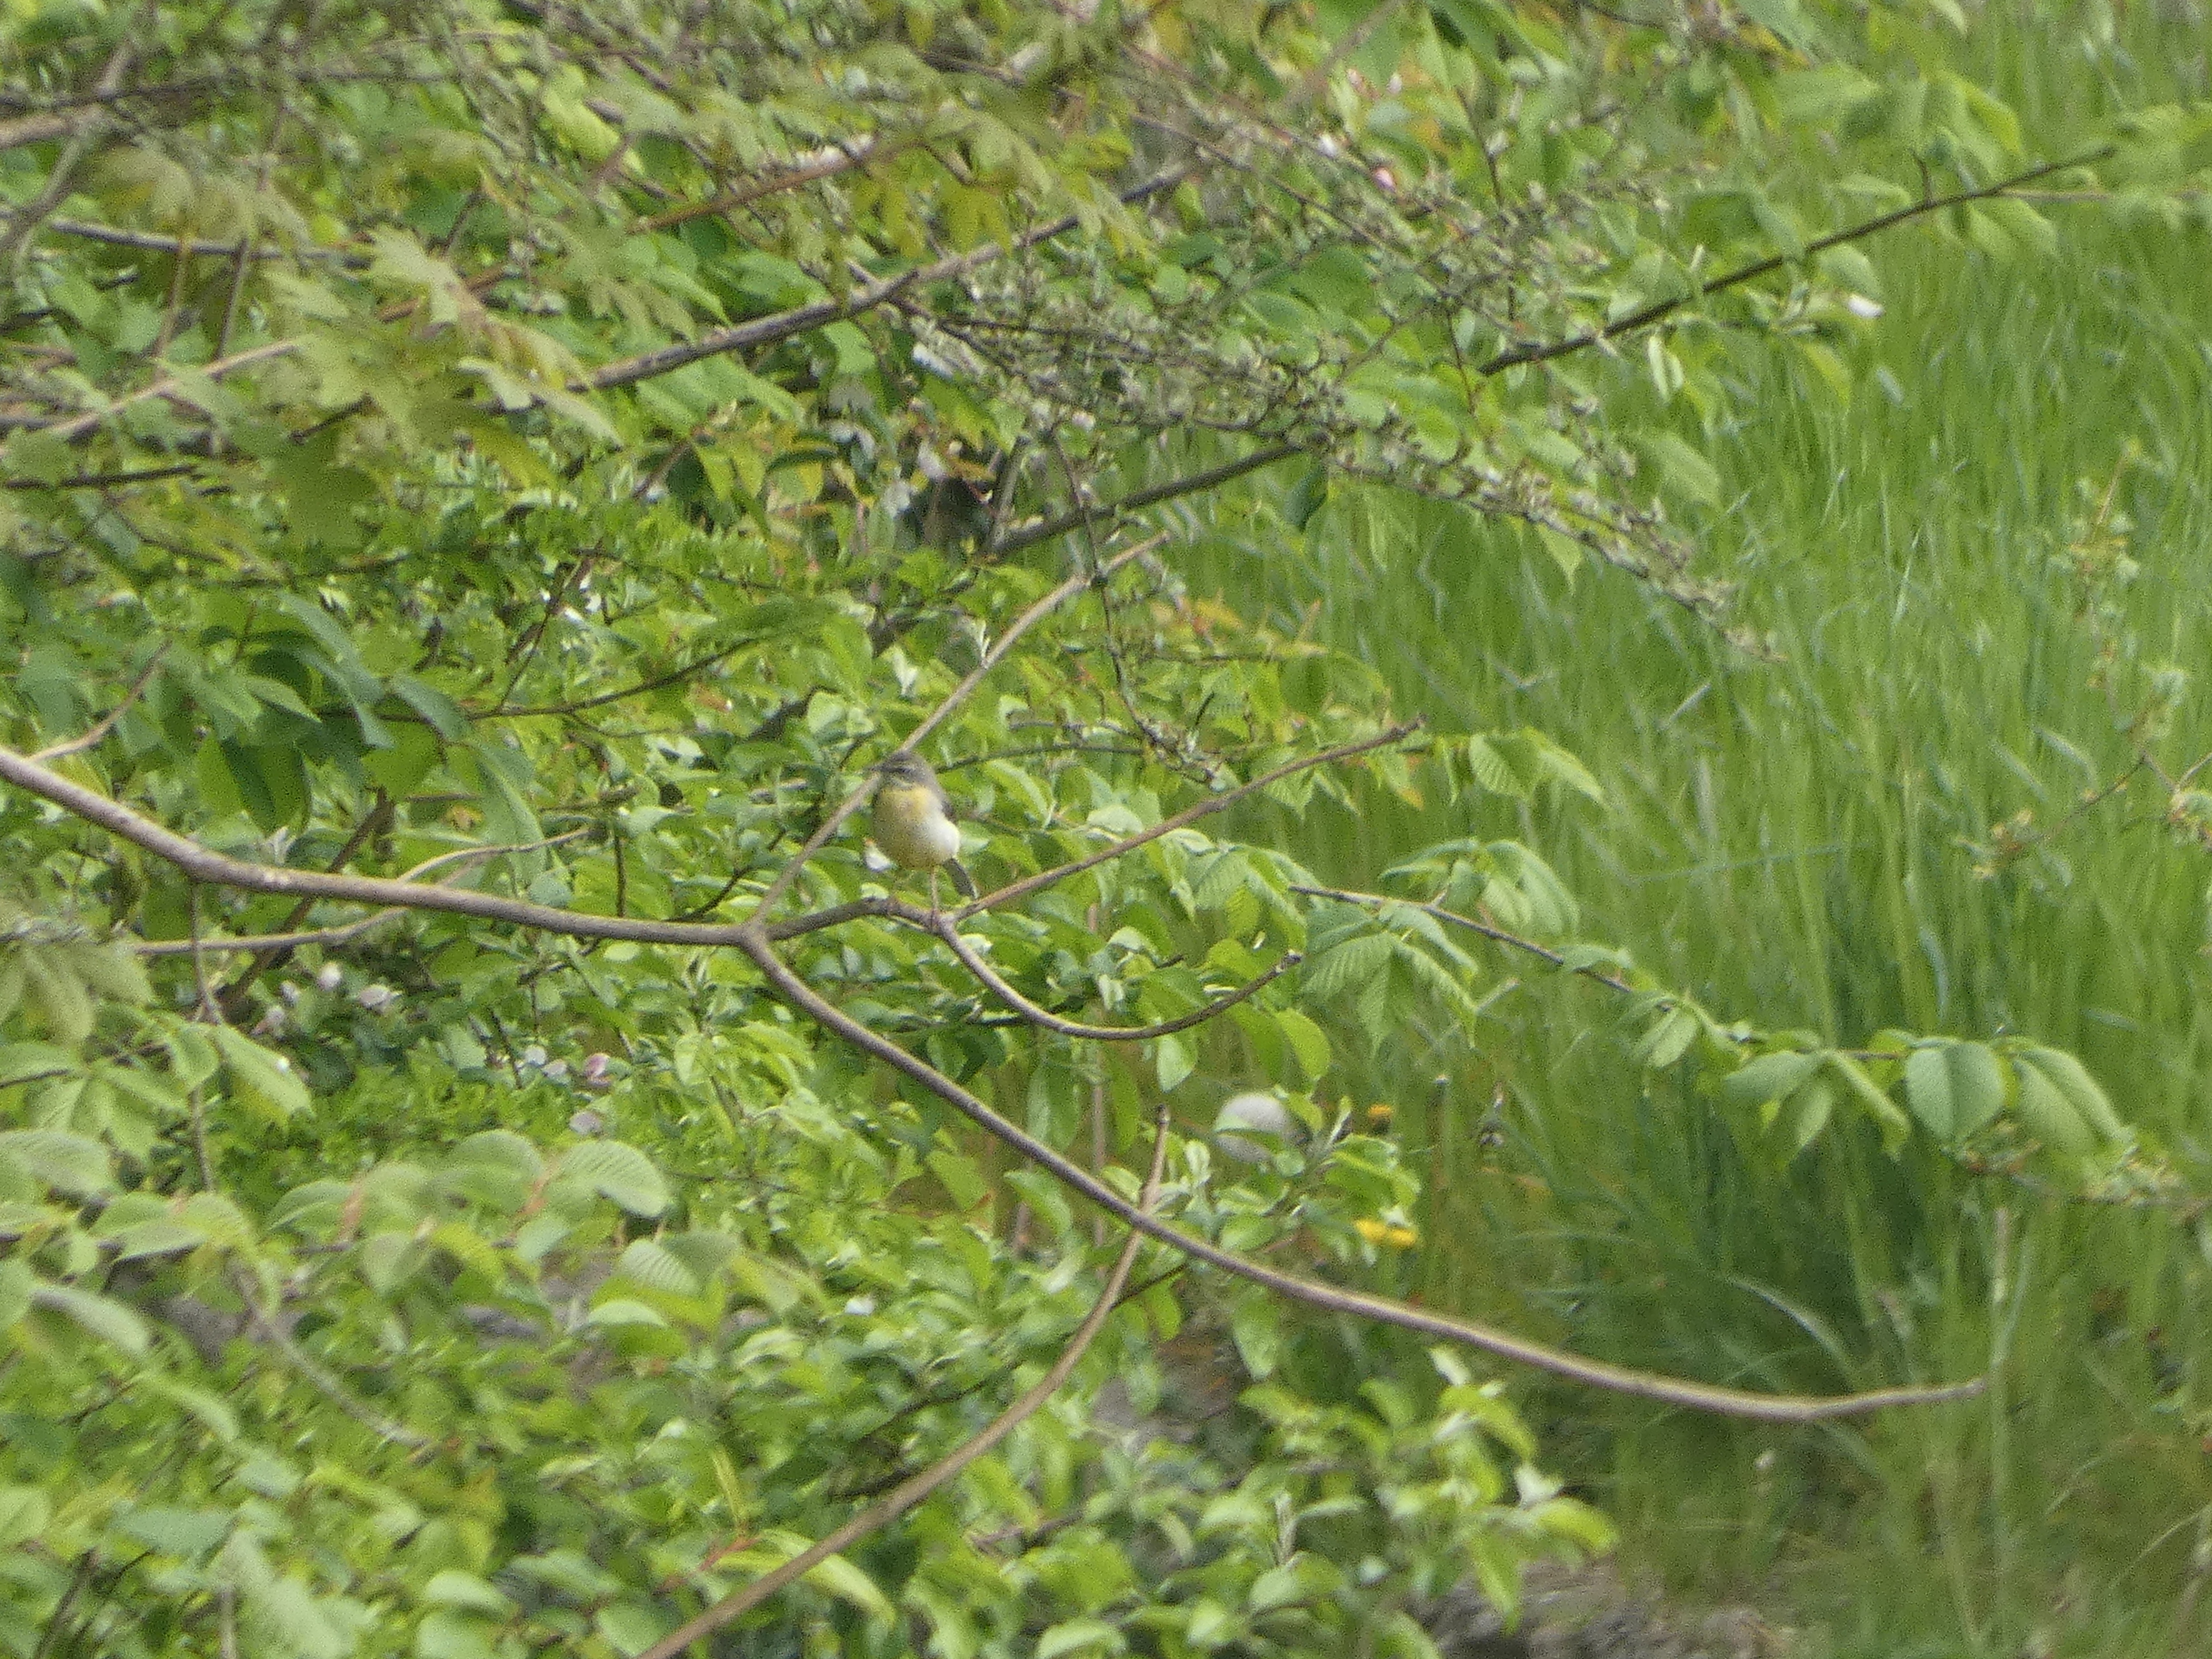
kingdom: Animalia
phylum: Chordata
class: Aves
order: Passeriformes
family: Motacillidae
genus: Motacilla
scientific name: Motacilla cinerea
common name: Bjergvipstjert
